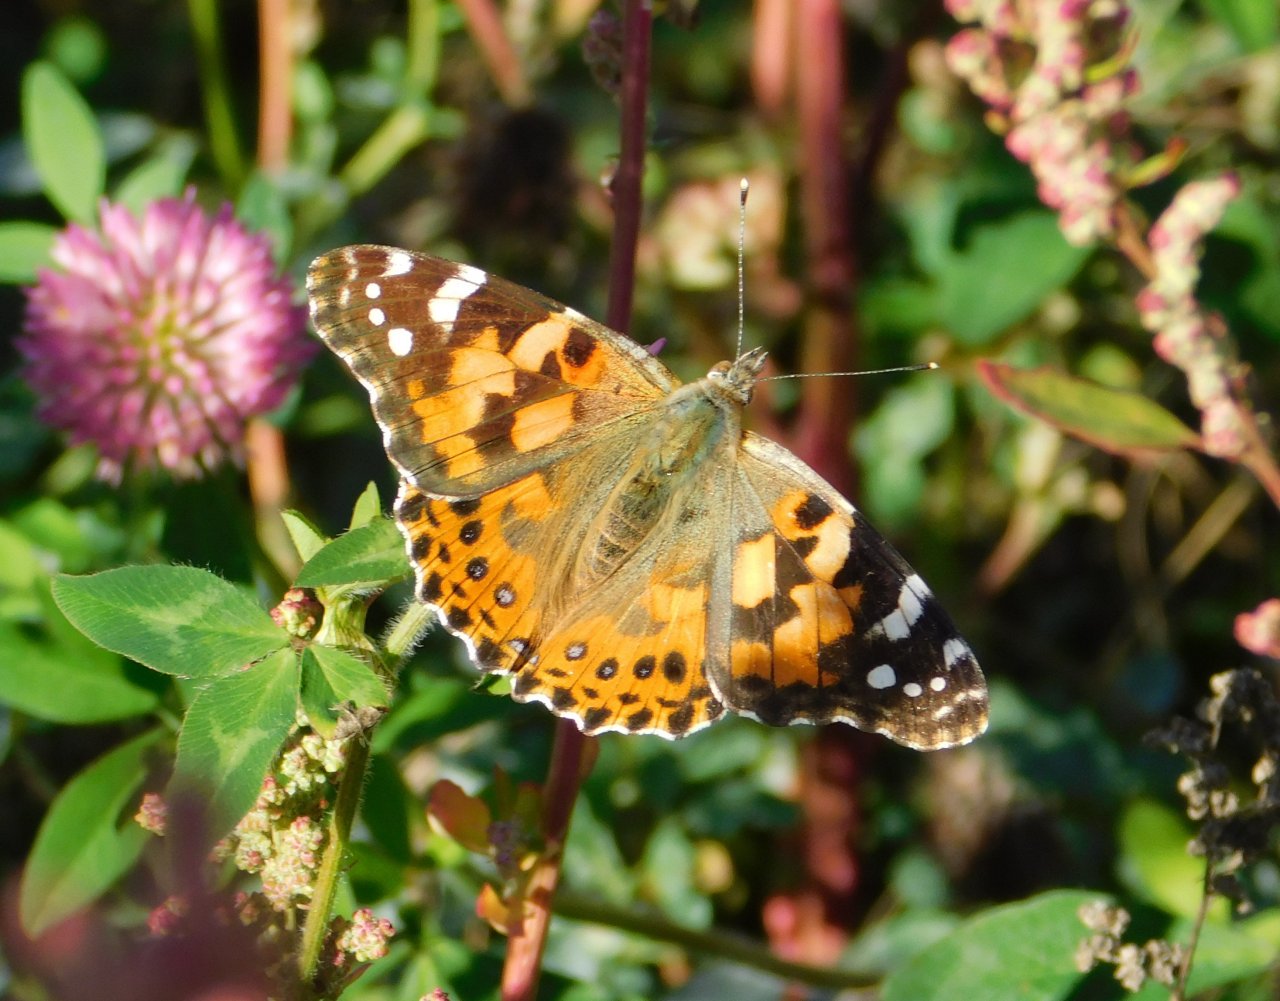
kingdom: Animalia
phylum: Arthropoda
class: Insecta
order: Lepidoptera
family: Nymphalidae
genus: Vanessa
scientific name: Vanessa cardui
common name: Painted Lady
